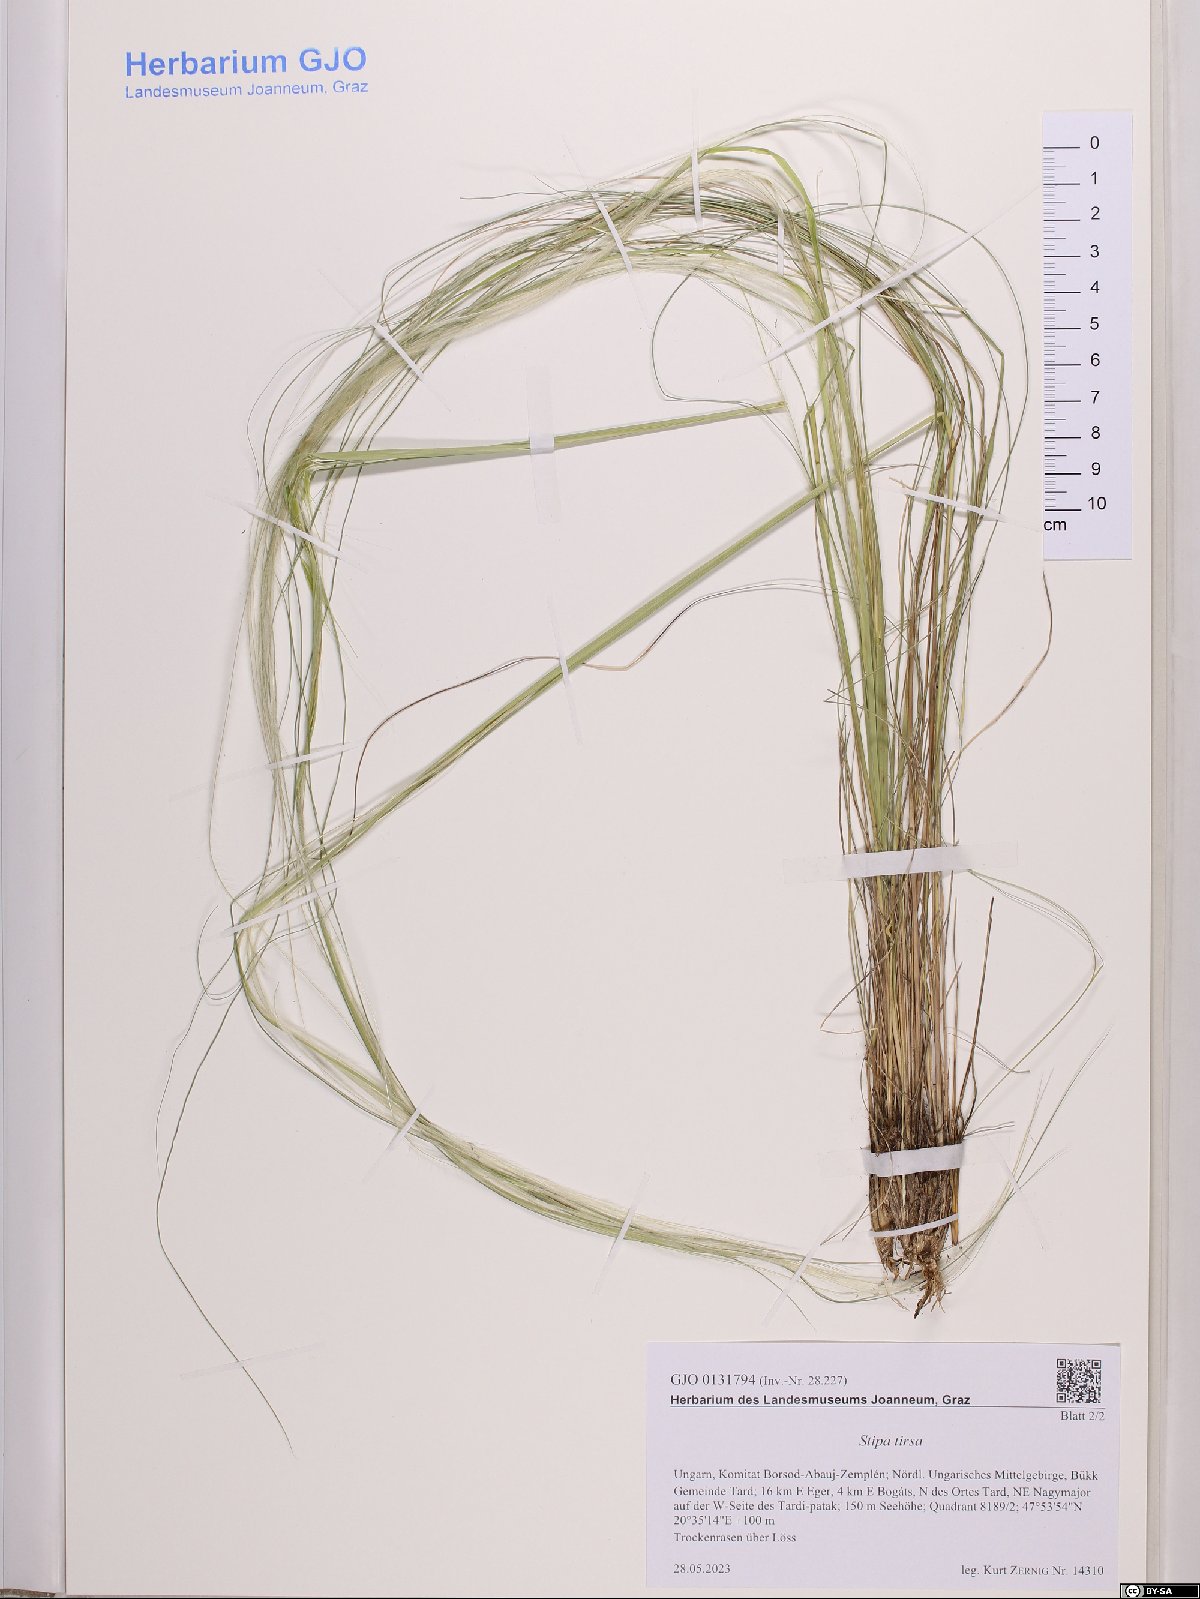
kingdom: Plantae
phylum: Tracheophyta
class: Liliopsida
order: Poales
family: Poaceae
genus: Stipa
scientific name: Stipa tirsa
